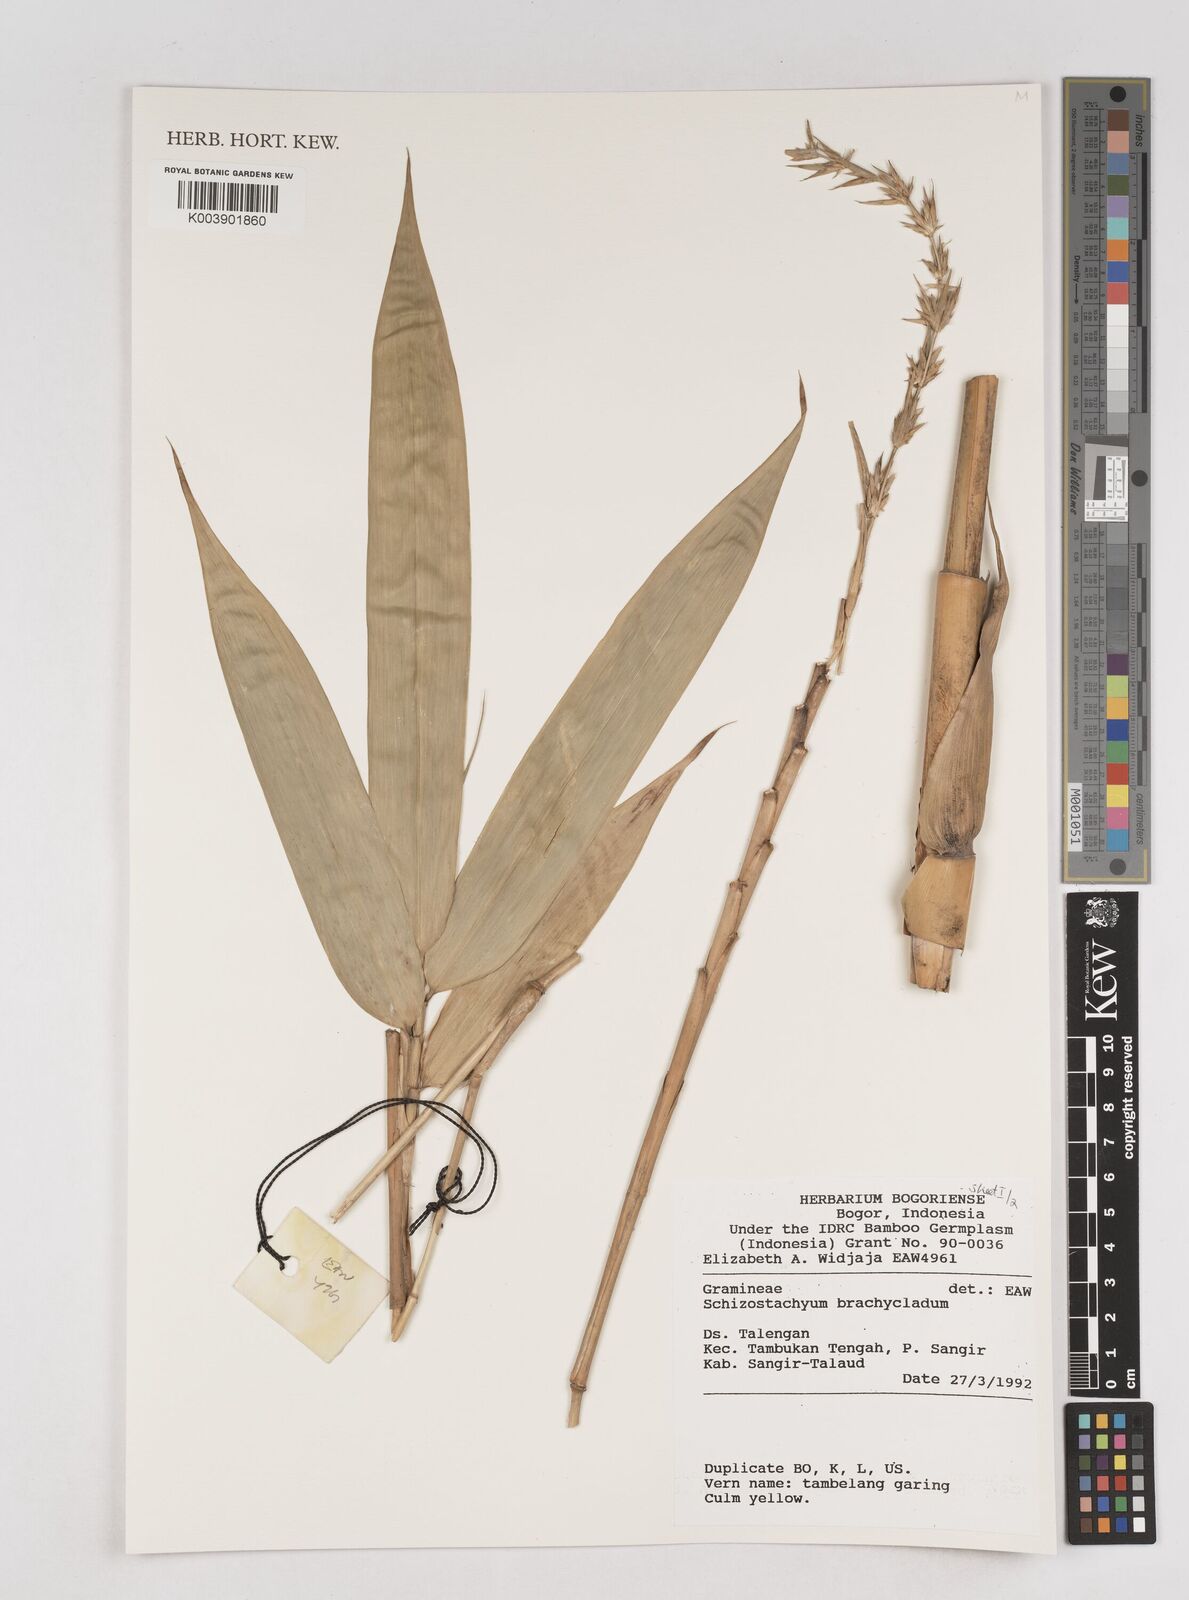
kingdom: Plantae
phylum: Tracheophyta
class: Liliopsida
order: Poales
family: Poaceae
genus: Schizostachyum
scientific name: Schizostachyum brachycladum
